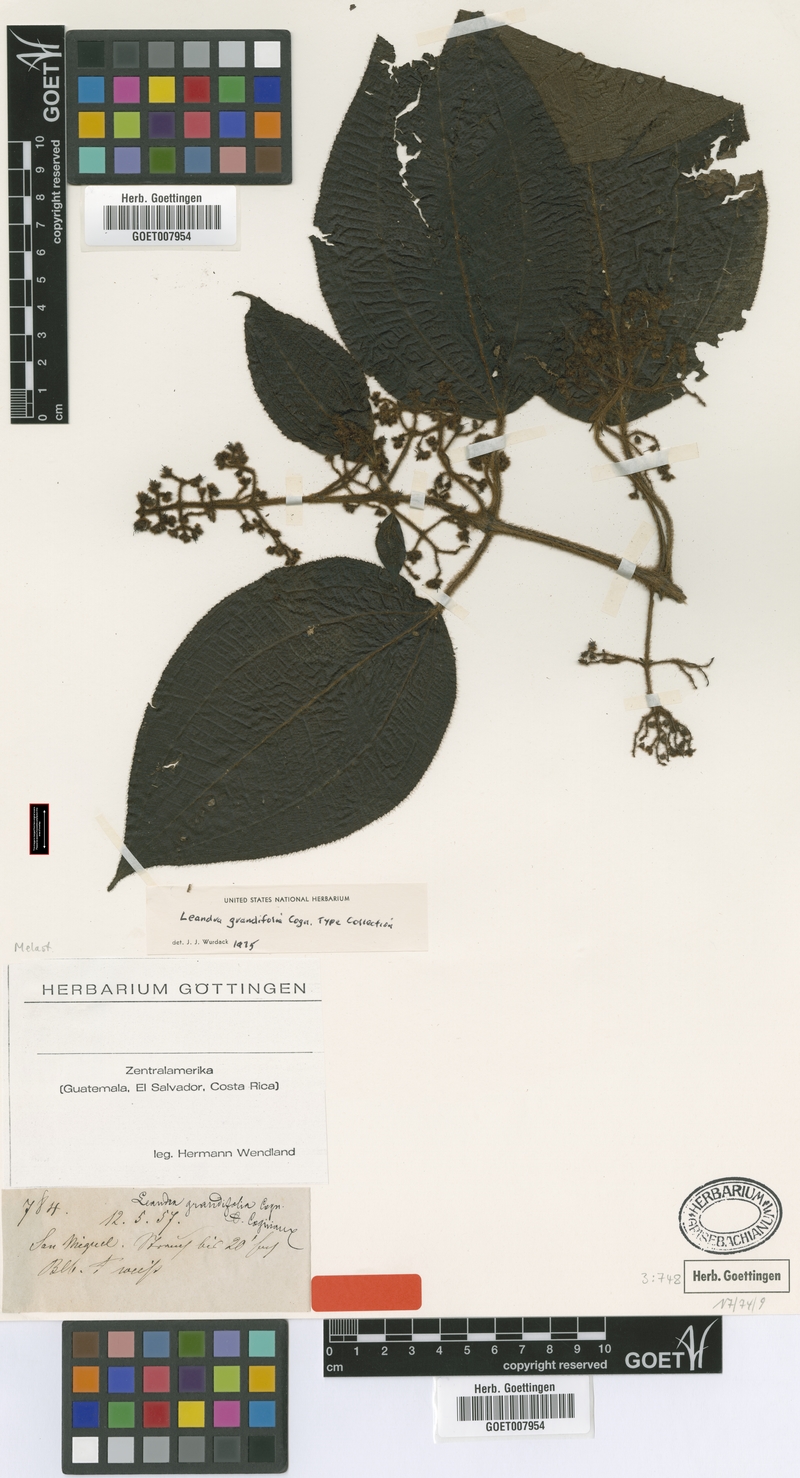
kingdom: Plantae
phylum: Tracheophyta
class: Magnoliopsida
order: Myrtales
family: Melastomataceae
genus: Miconia
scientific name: Miconia secungrandifolia
